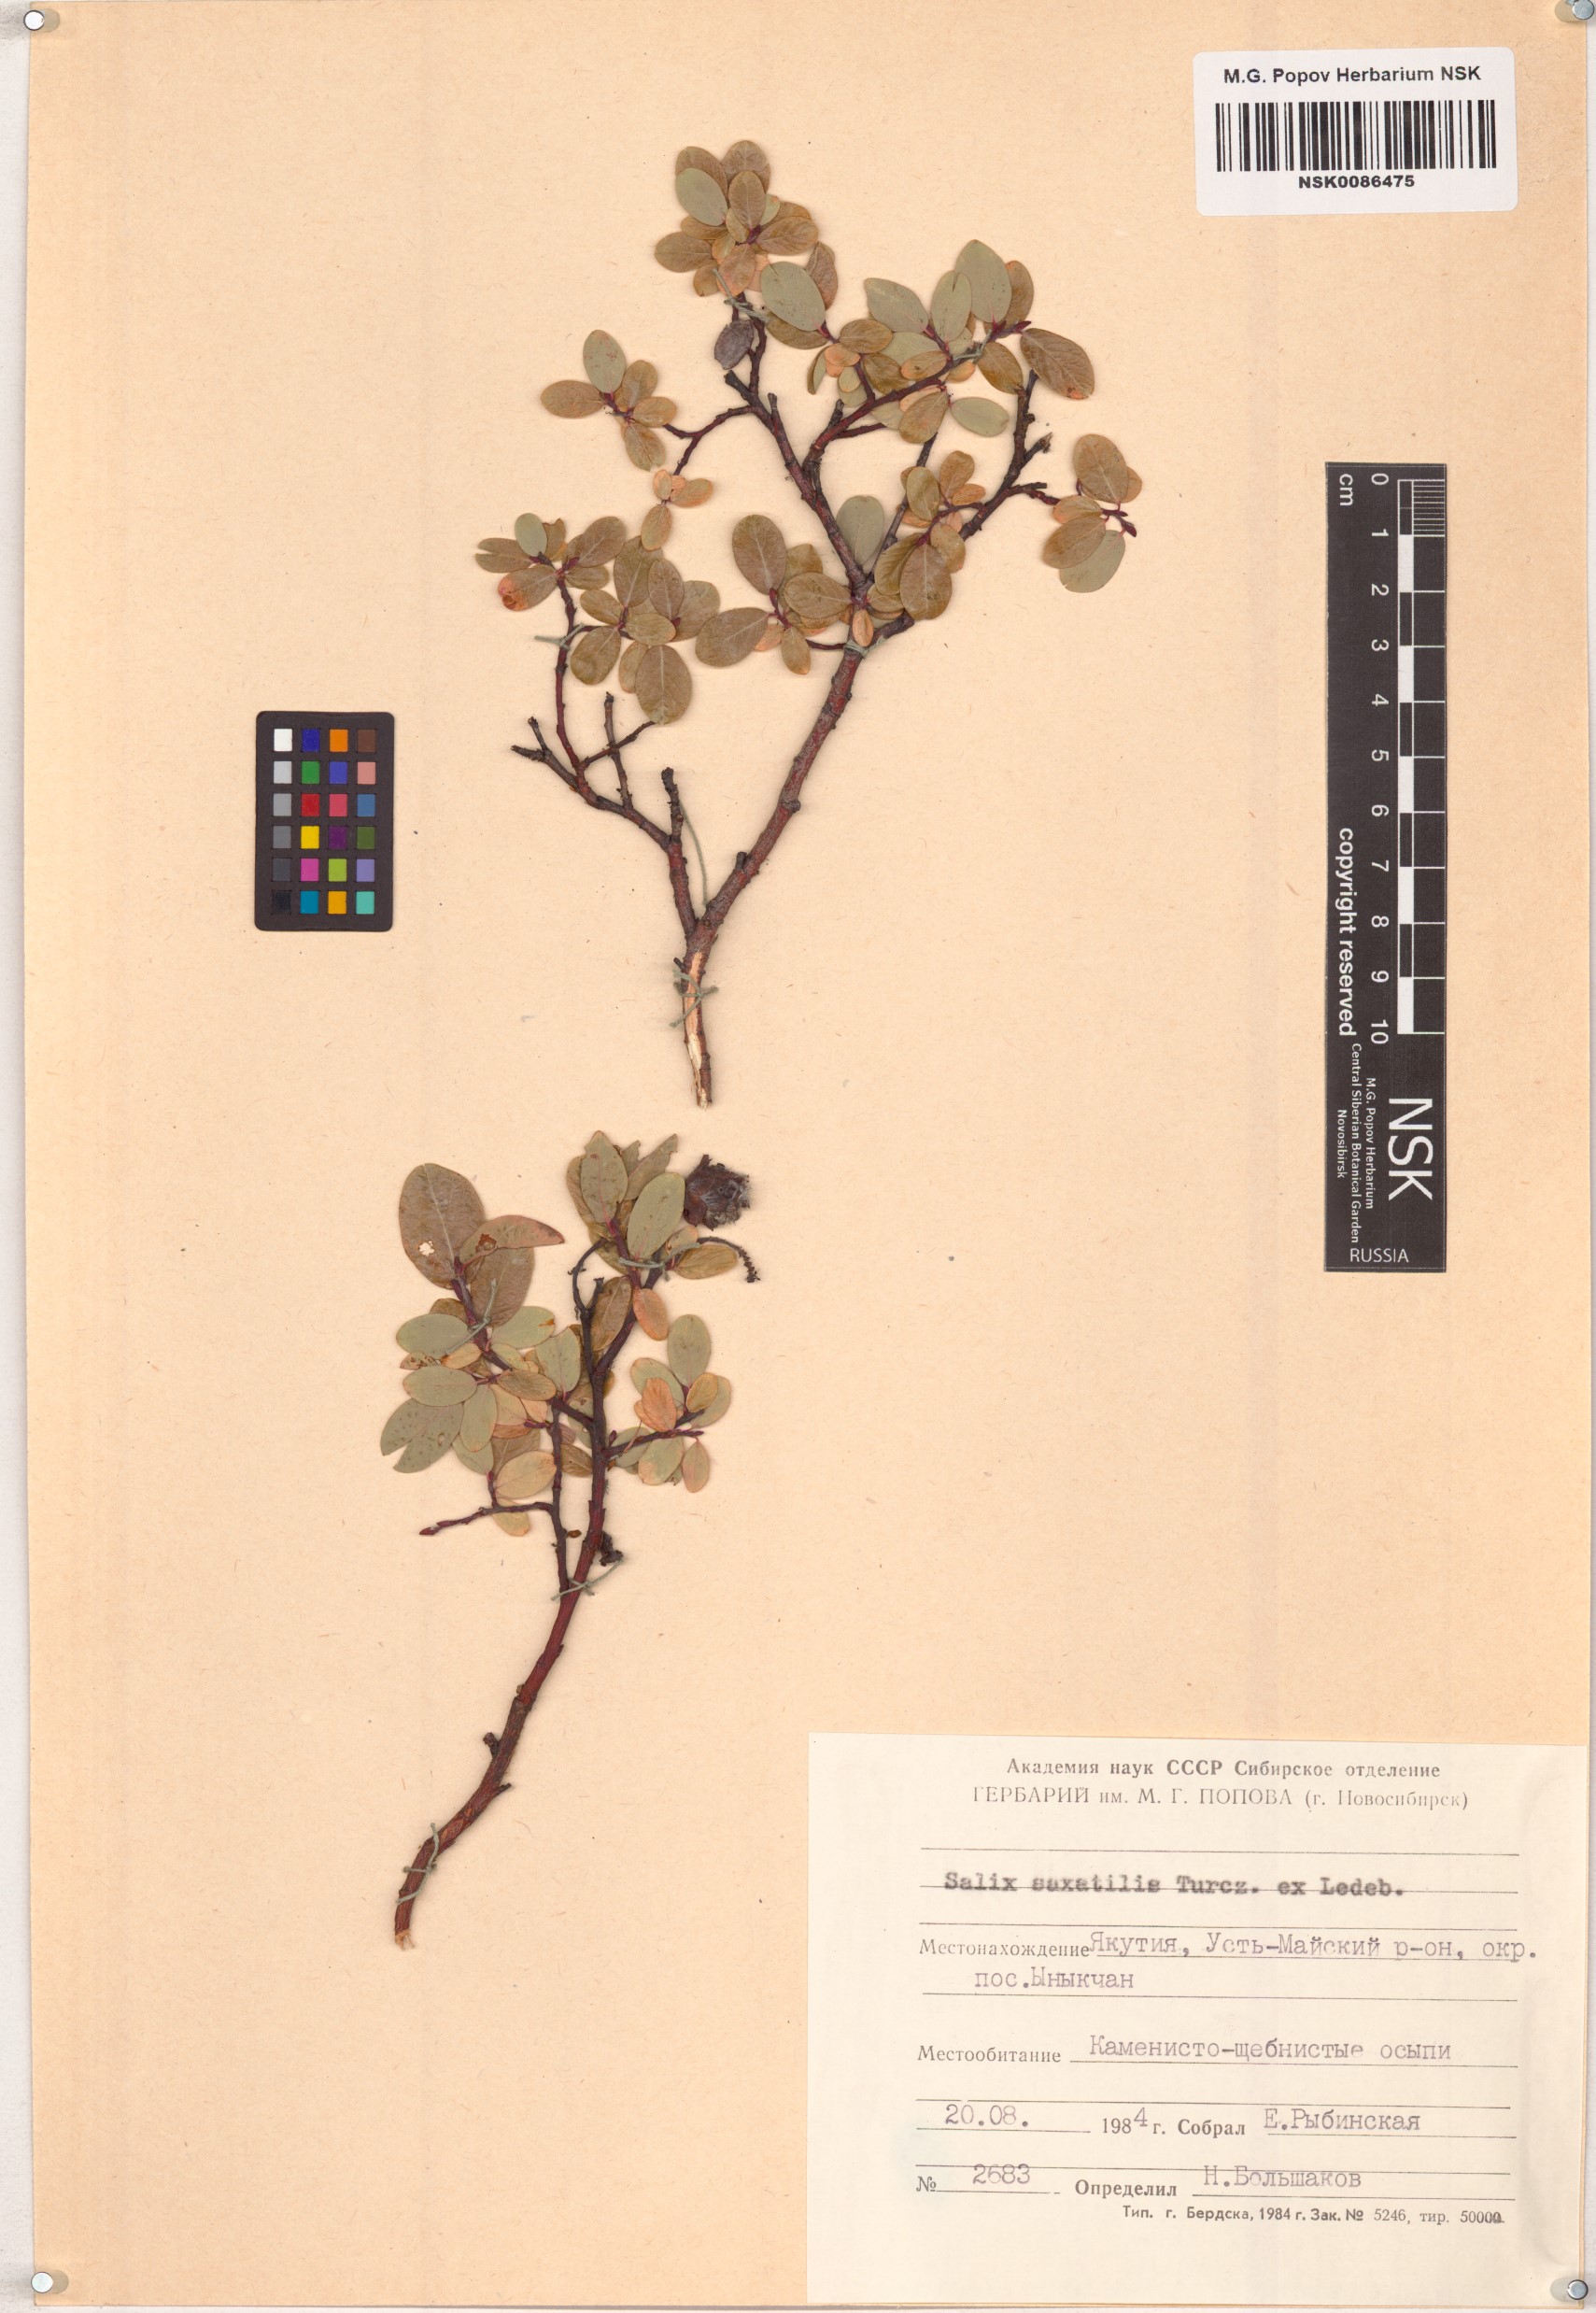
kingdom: Plantae
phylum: Tracheophyta
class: Magnoliopsida
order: Malpighiales
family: Salicaceae
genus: Salix
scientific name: Salix saxatilis
